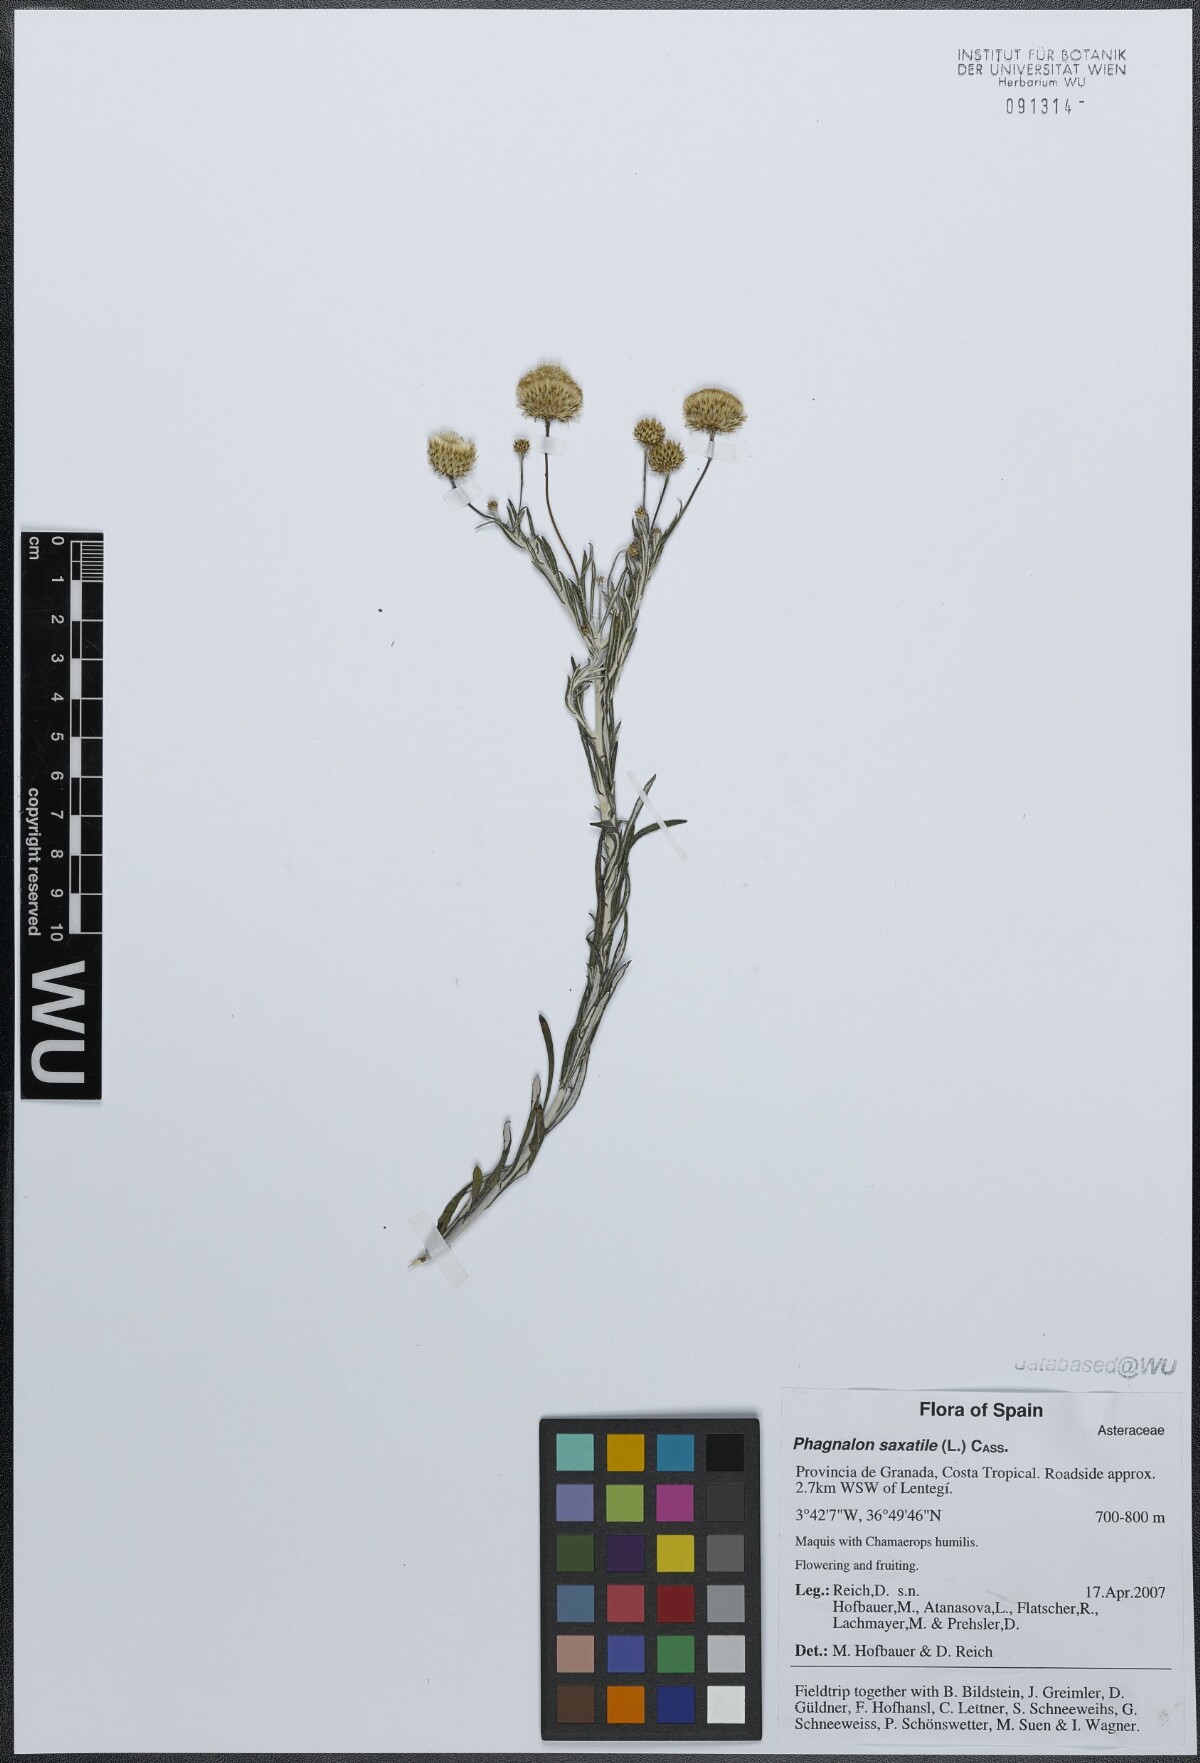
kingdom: Plantae
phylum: Tracheophyta
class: Magnoliopsida
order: Asterales
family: Asteraceae
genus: Phagnalon
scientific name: Phagnalon saxatile
